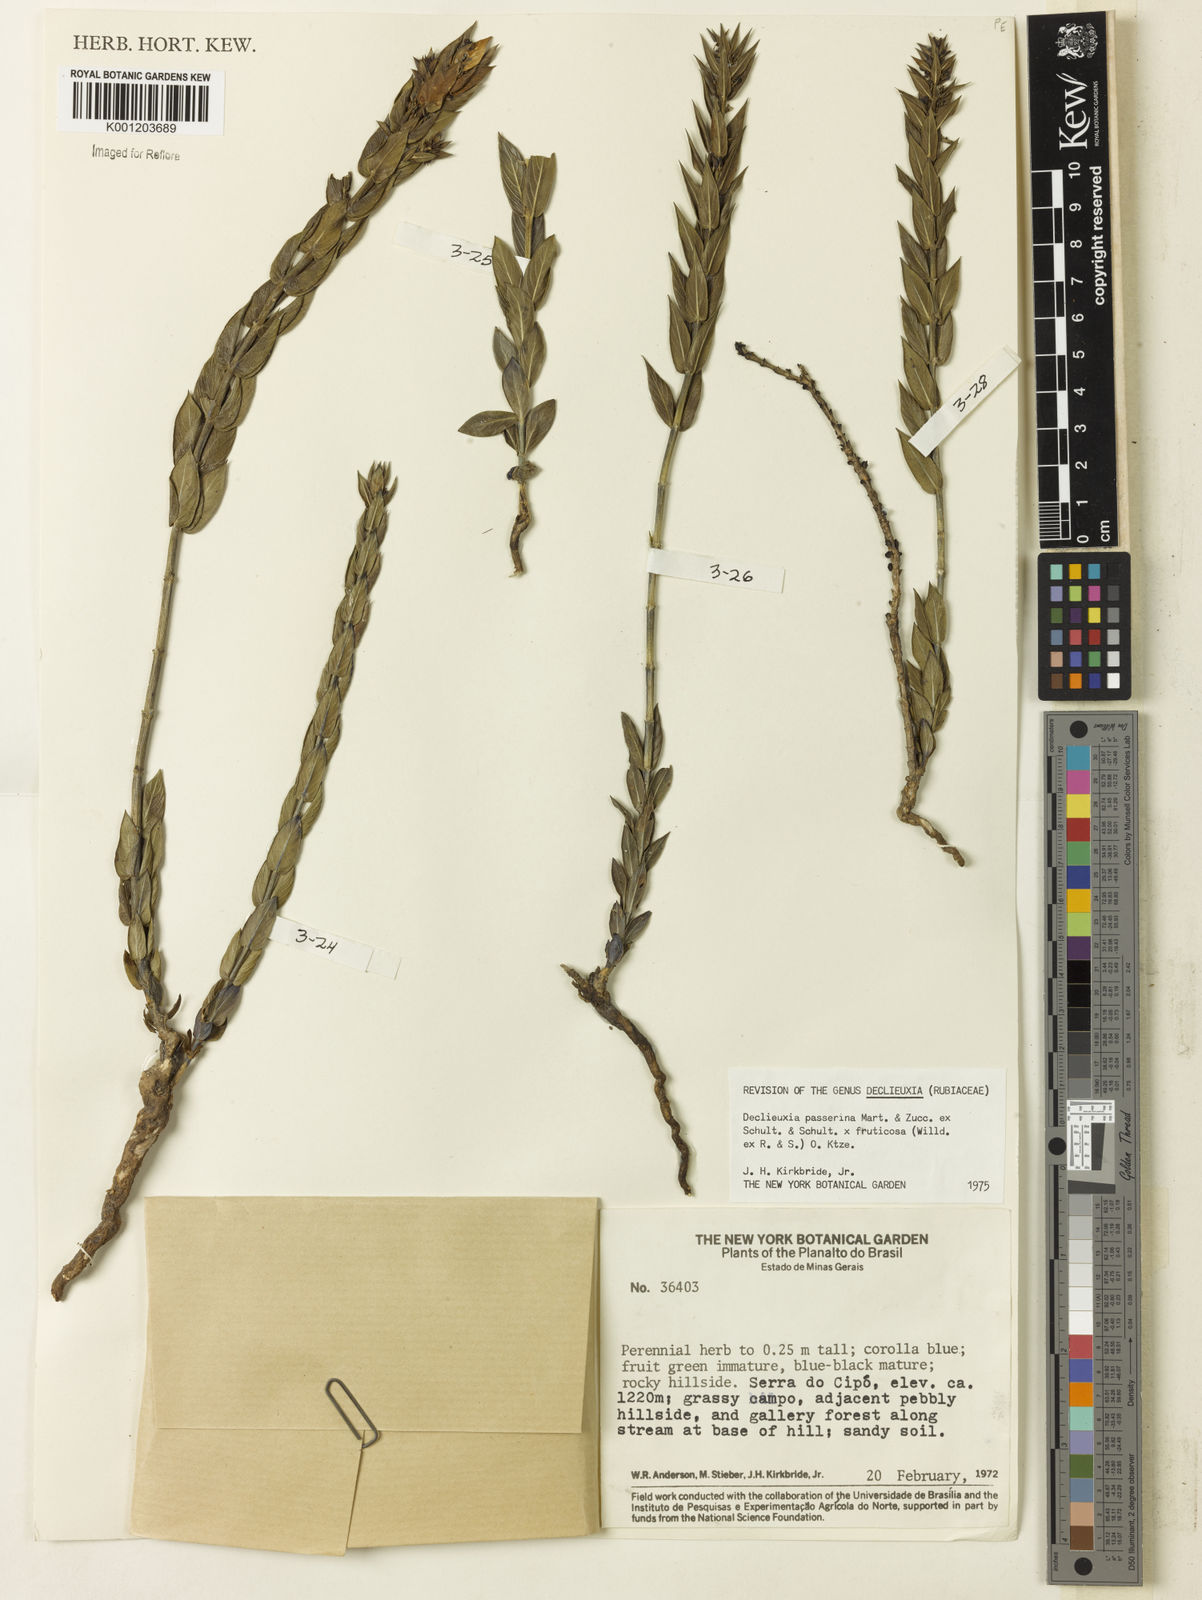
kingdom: Plantae
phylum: Tracheophyta
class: Magnoliopsida
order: Gentianales
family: Rubiaceae
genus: Declieuxia
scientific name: Declieuxia
